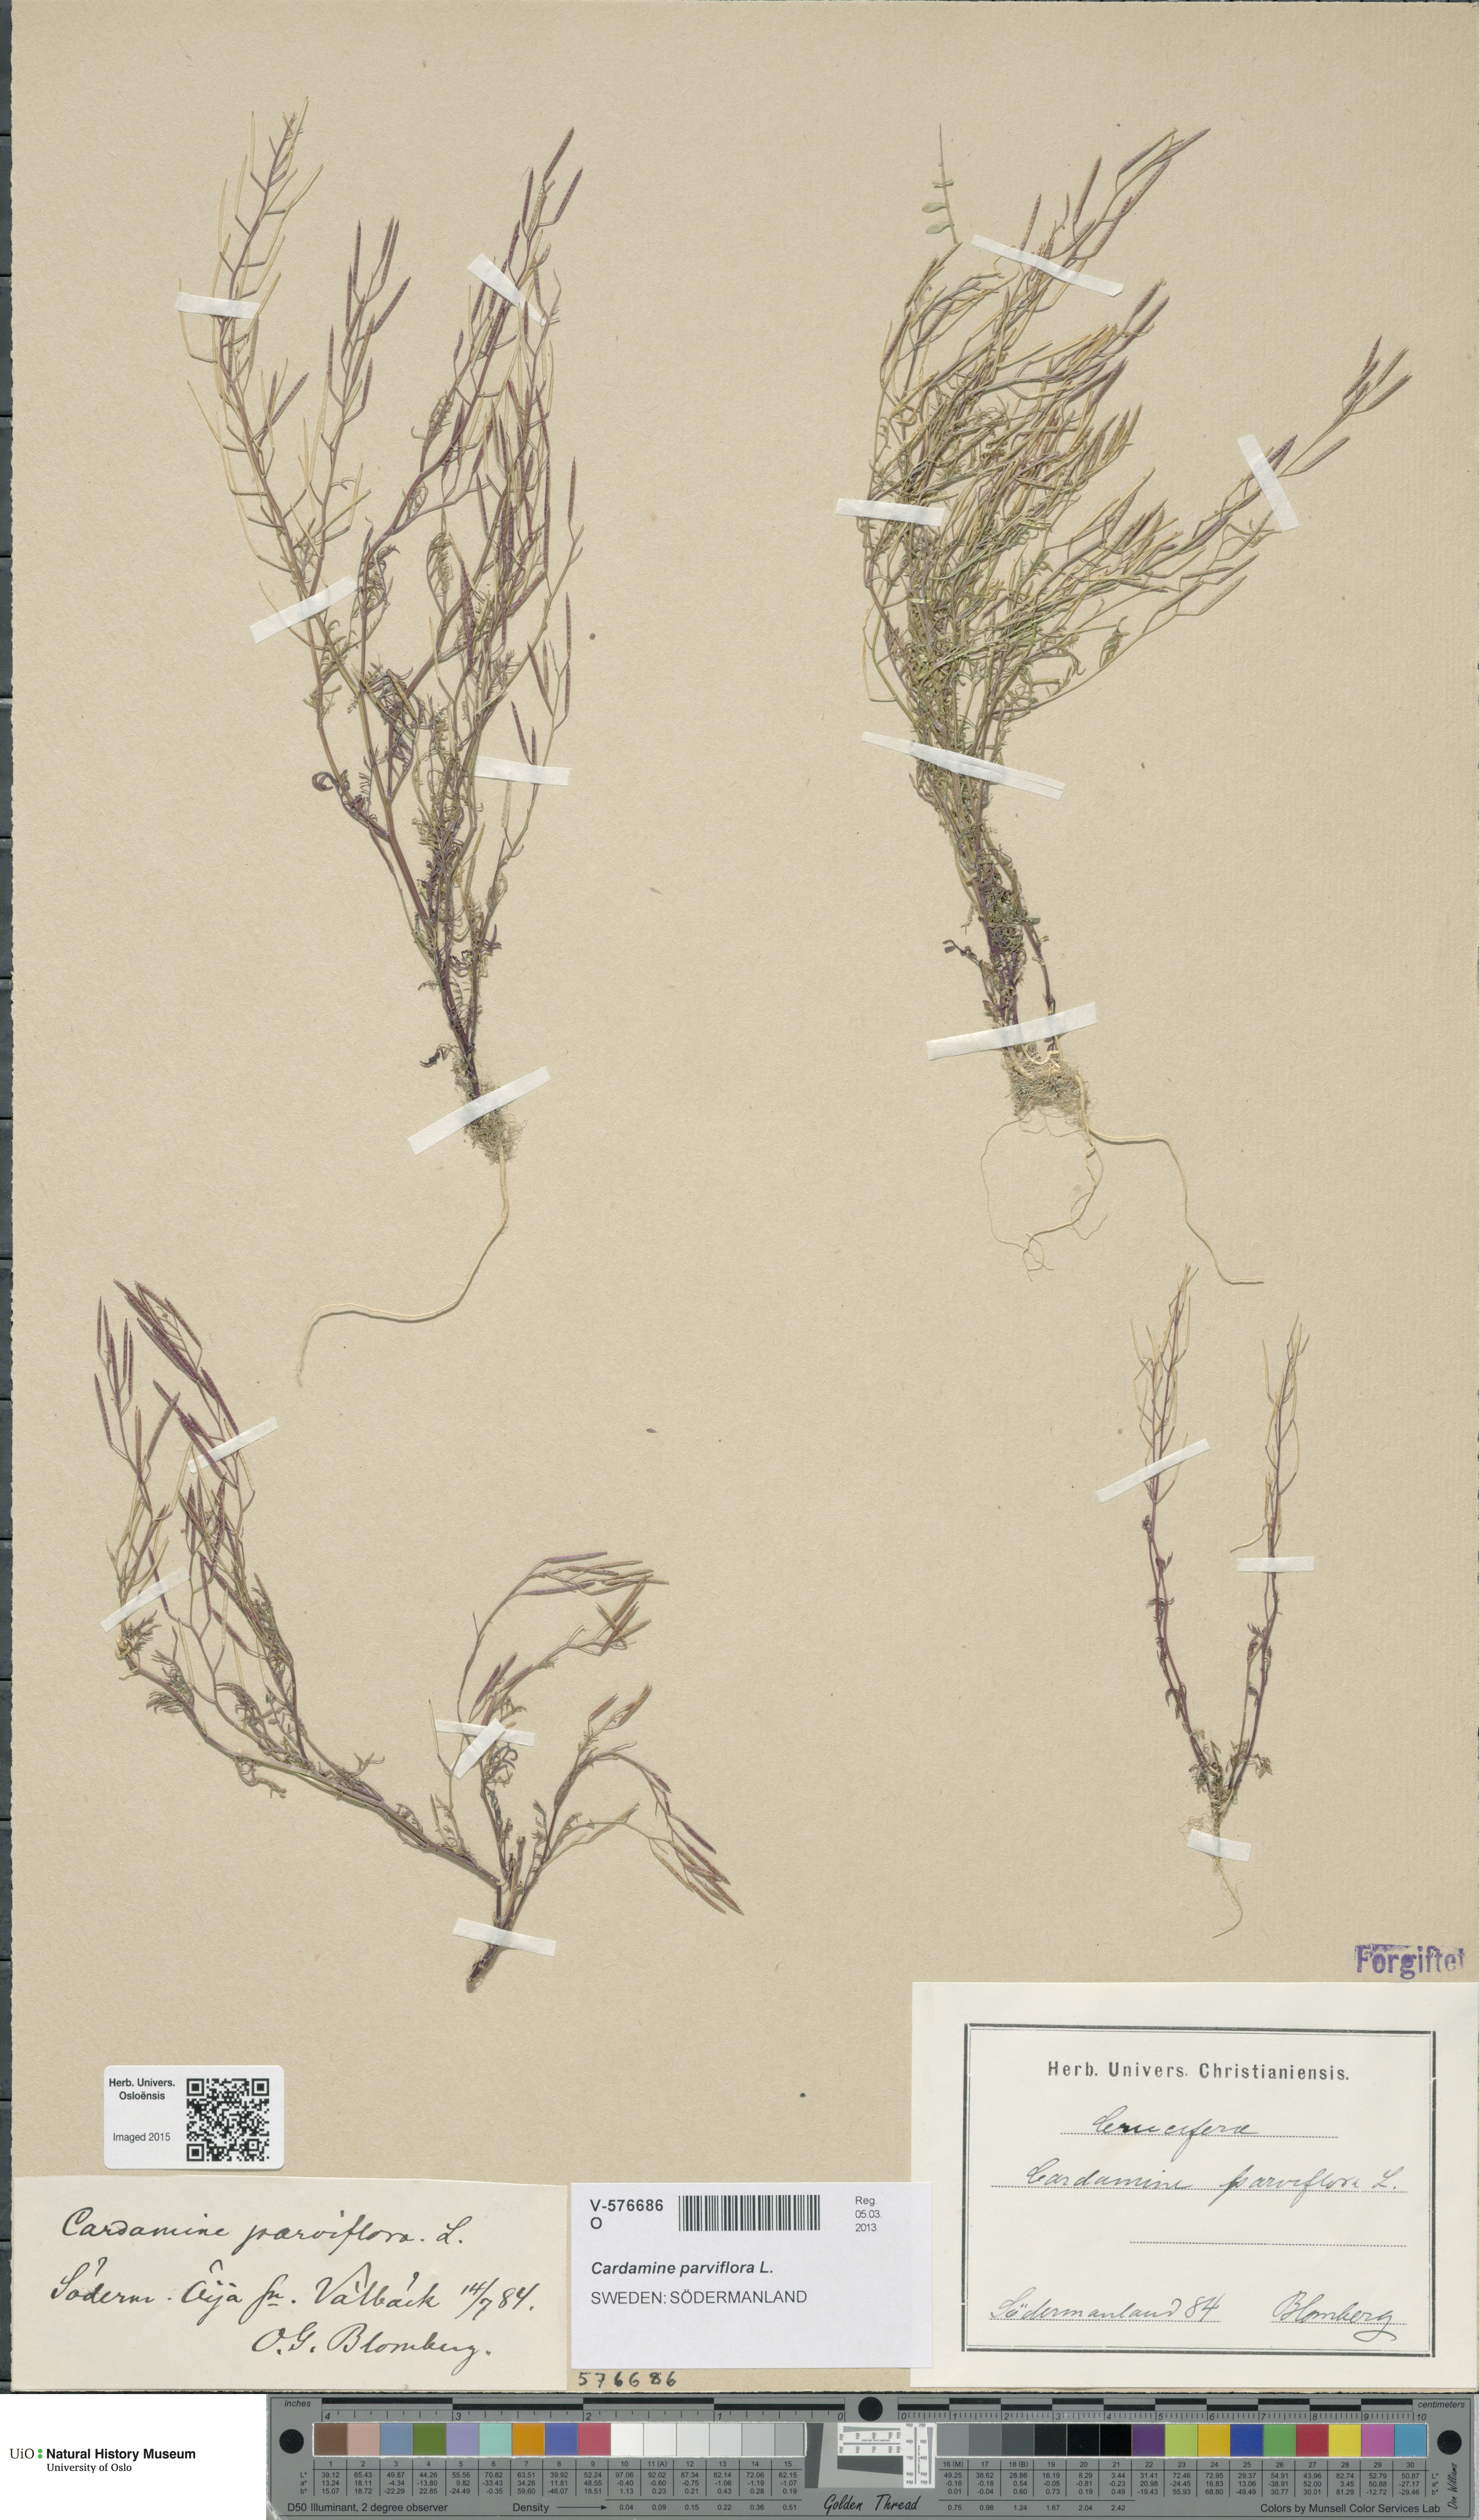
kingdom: Plantae
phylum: Tracheophyta
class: Magnoliopsida
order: Brassicales
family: Brassicaceae
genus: Cardamine
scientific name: Cardamine parviflora
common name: Sand bittercress
